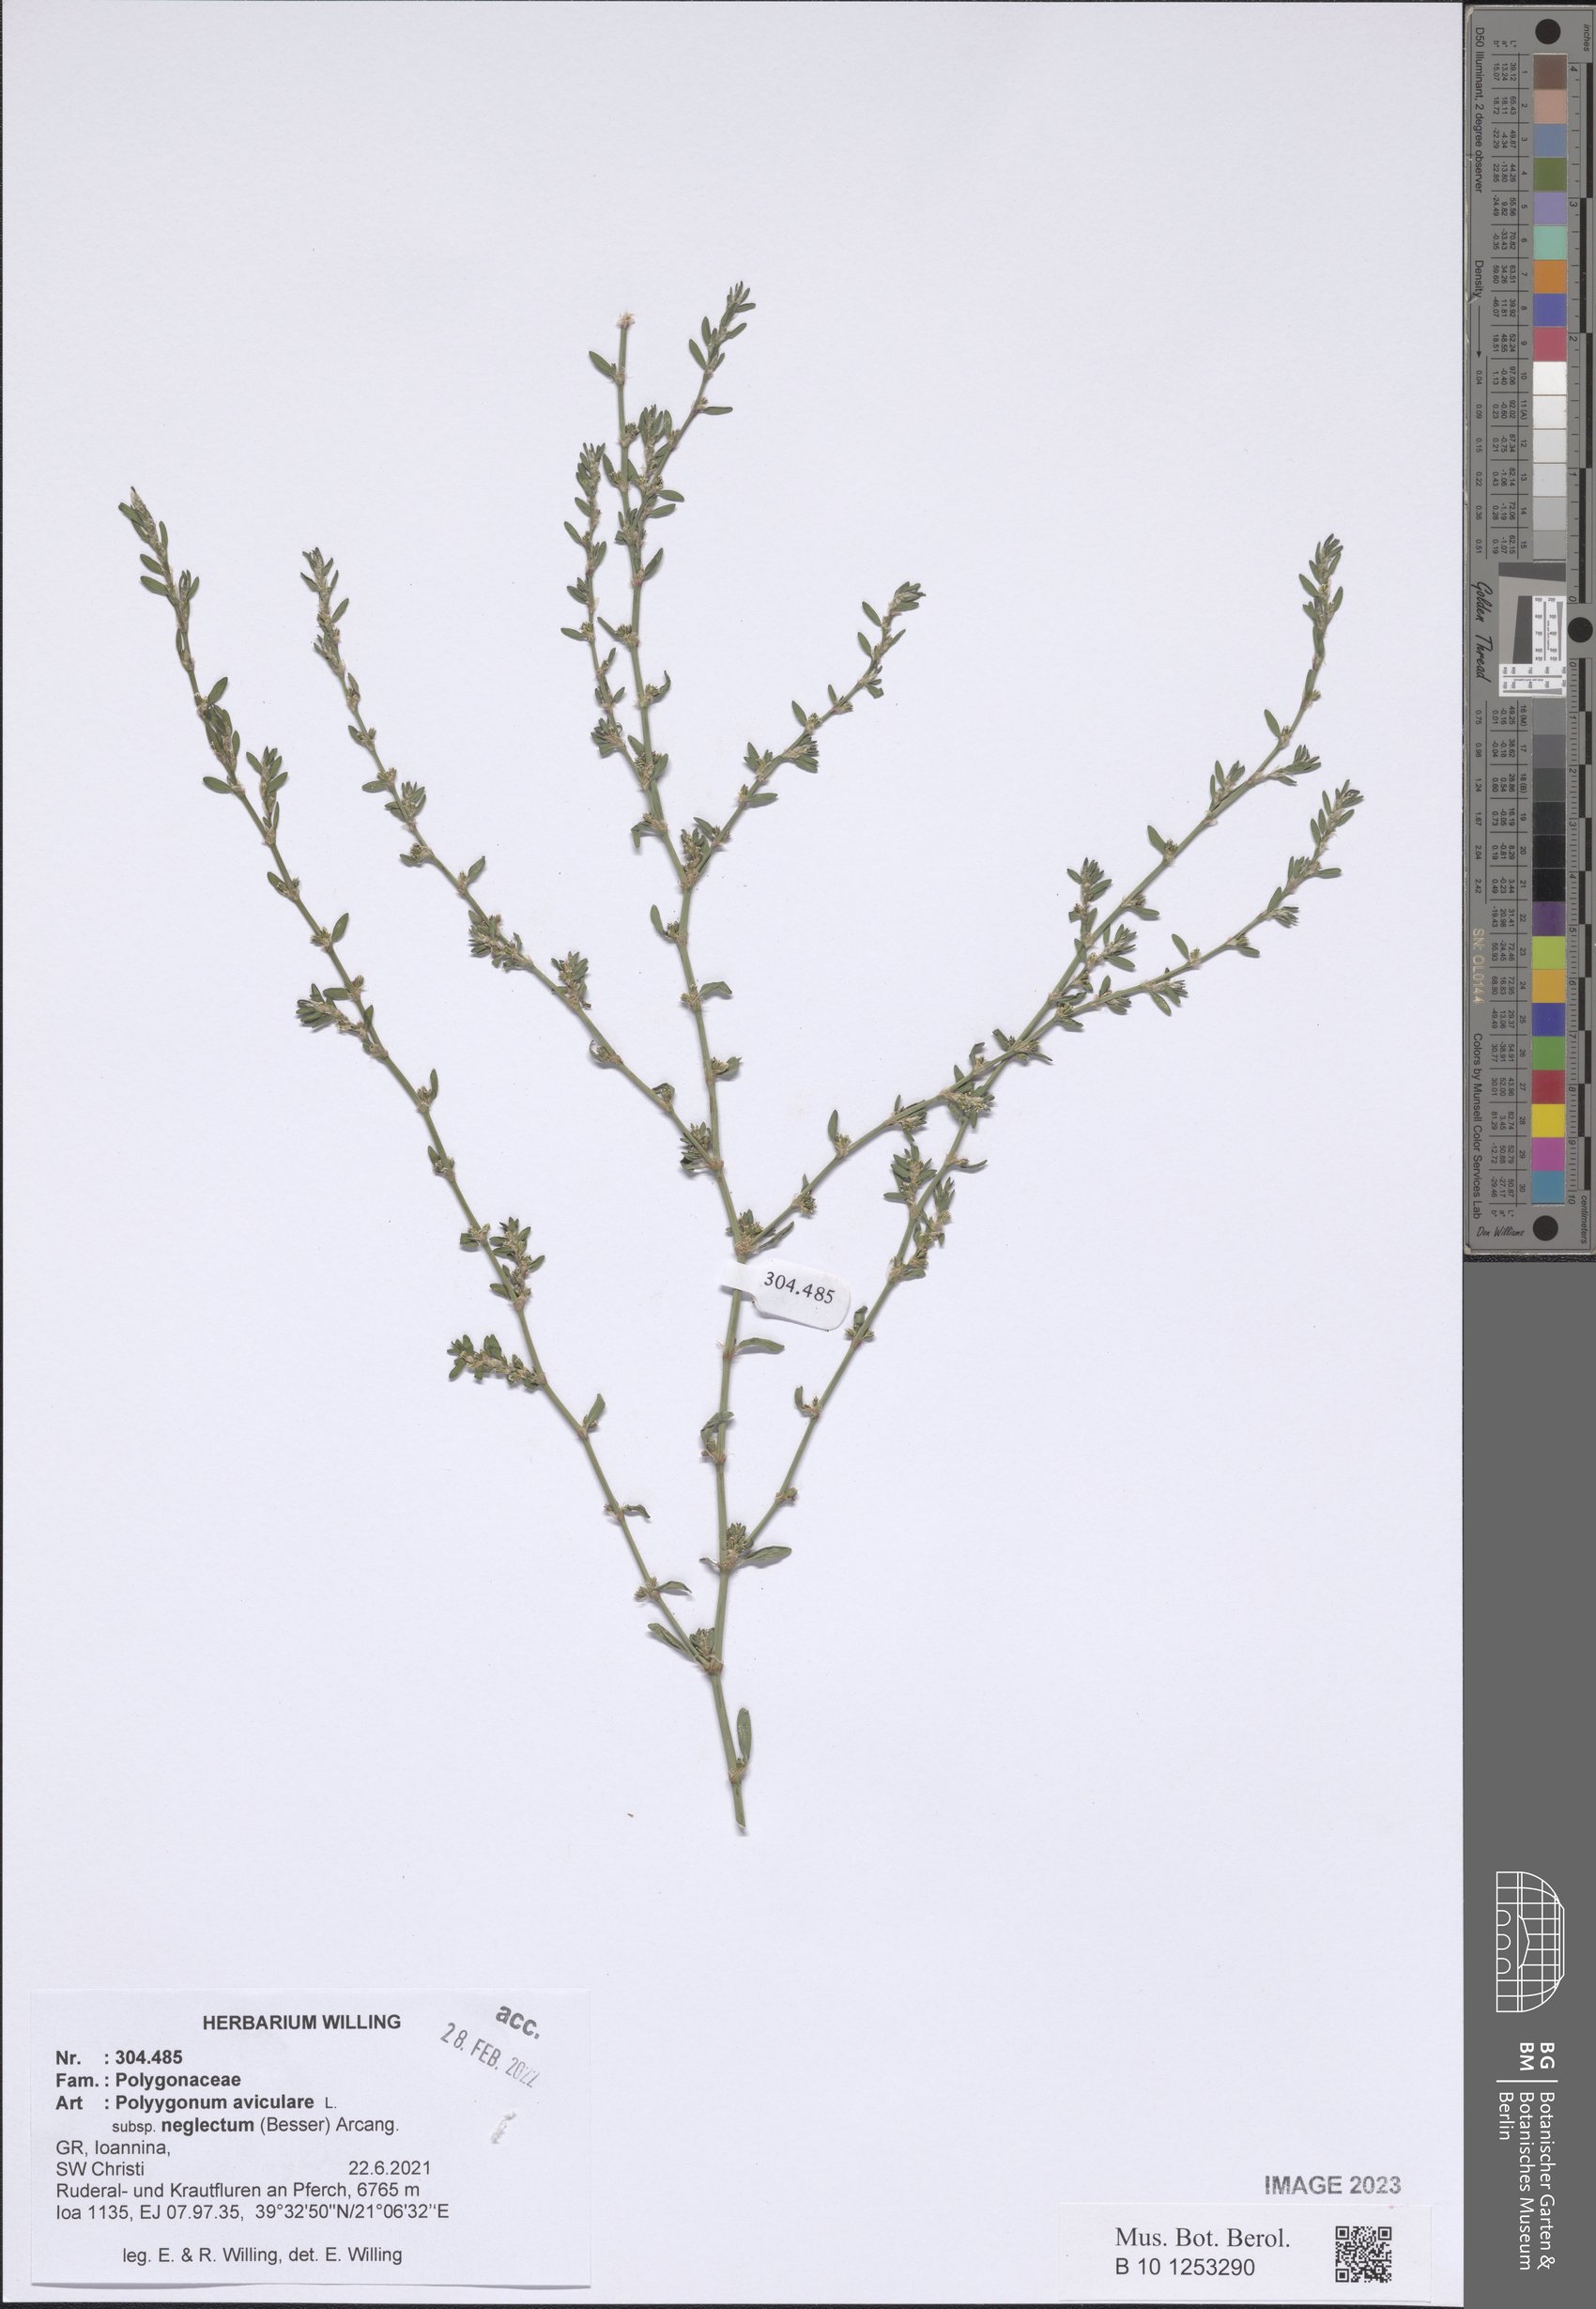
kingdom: Plantae
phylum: Tracheophyta
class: Magnoliopsida
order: Caryophyllales
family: Polygonaceae
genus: Polygonum
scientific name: Polygonum aviculare
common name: Prostrate knotweed
